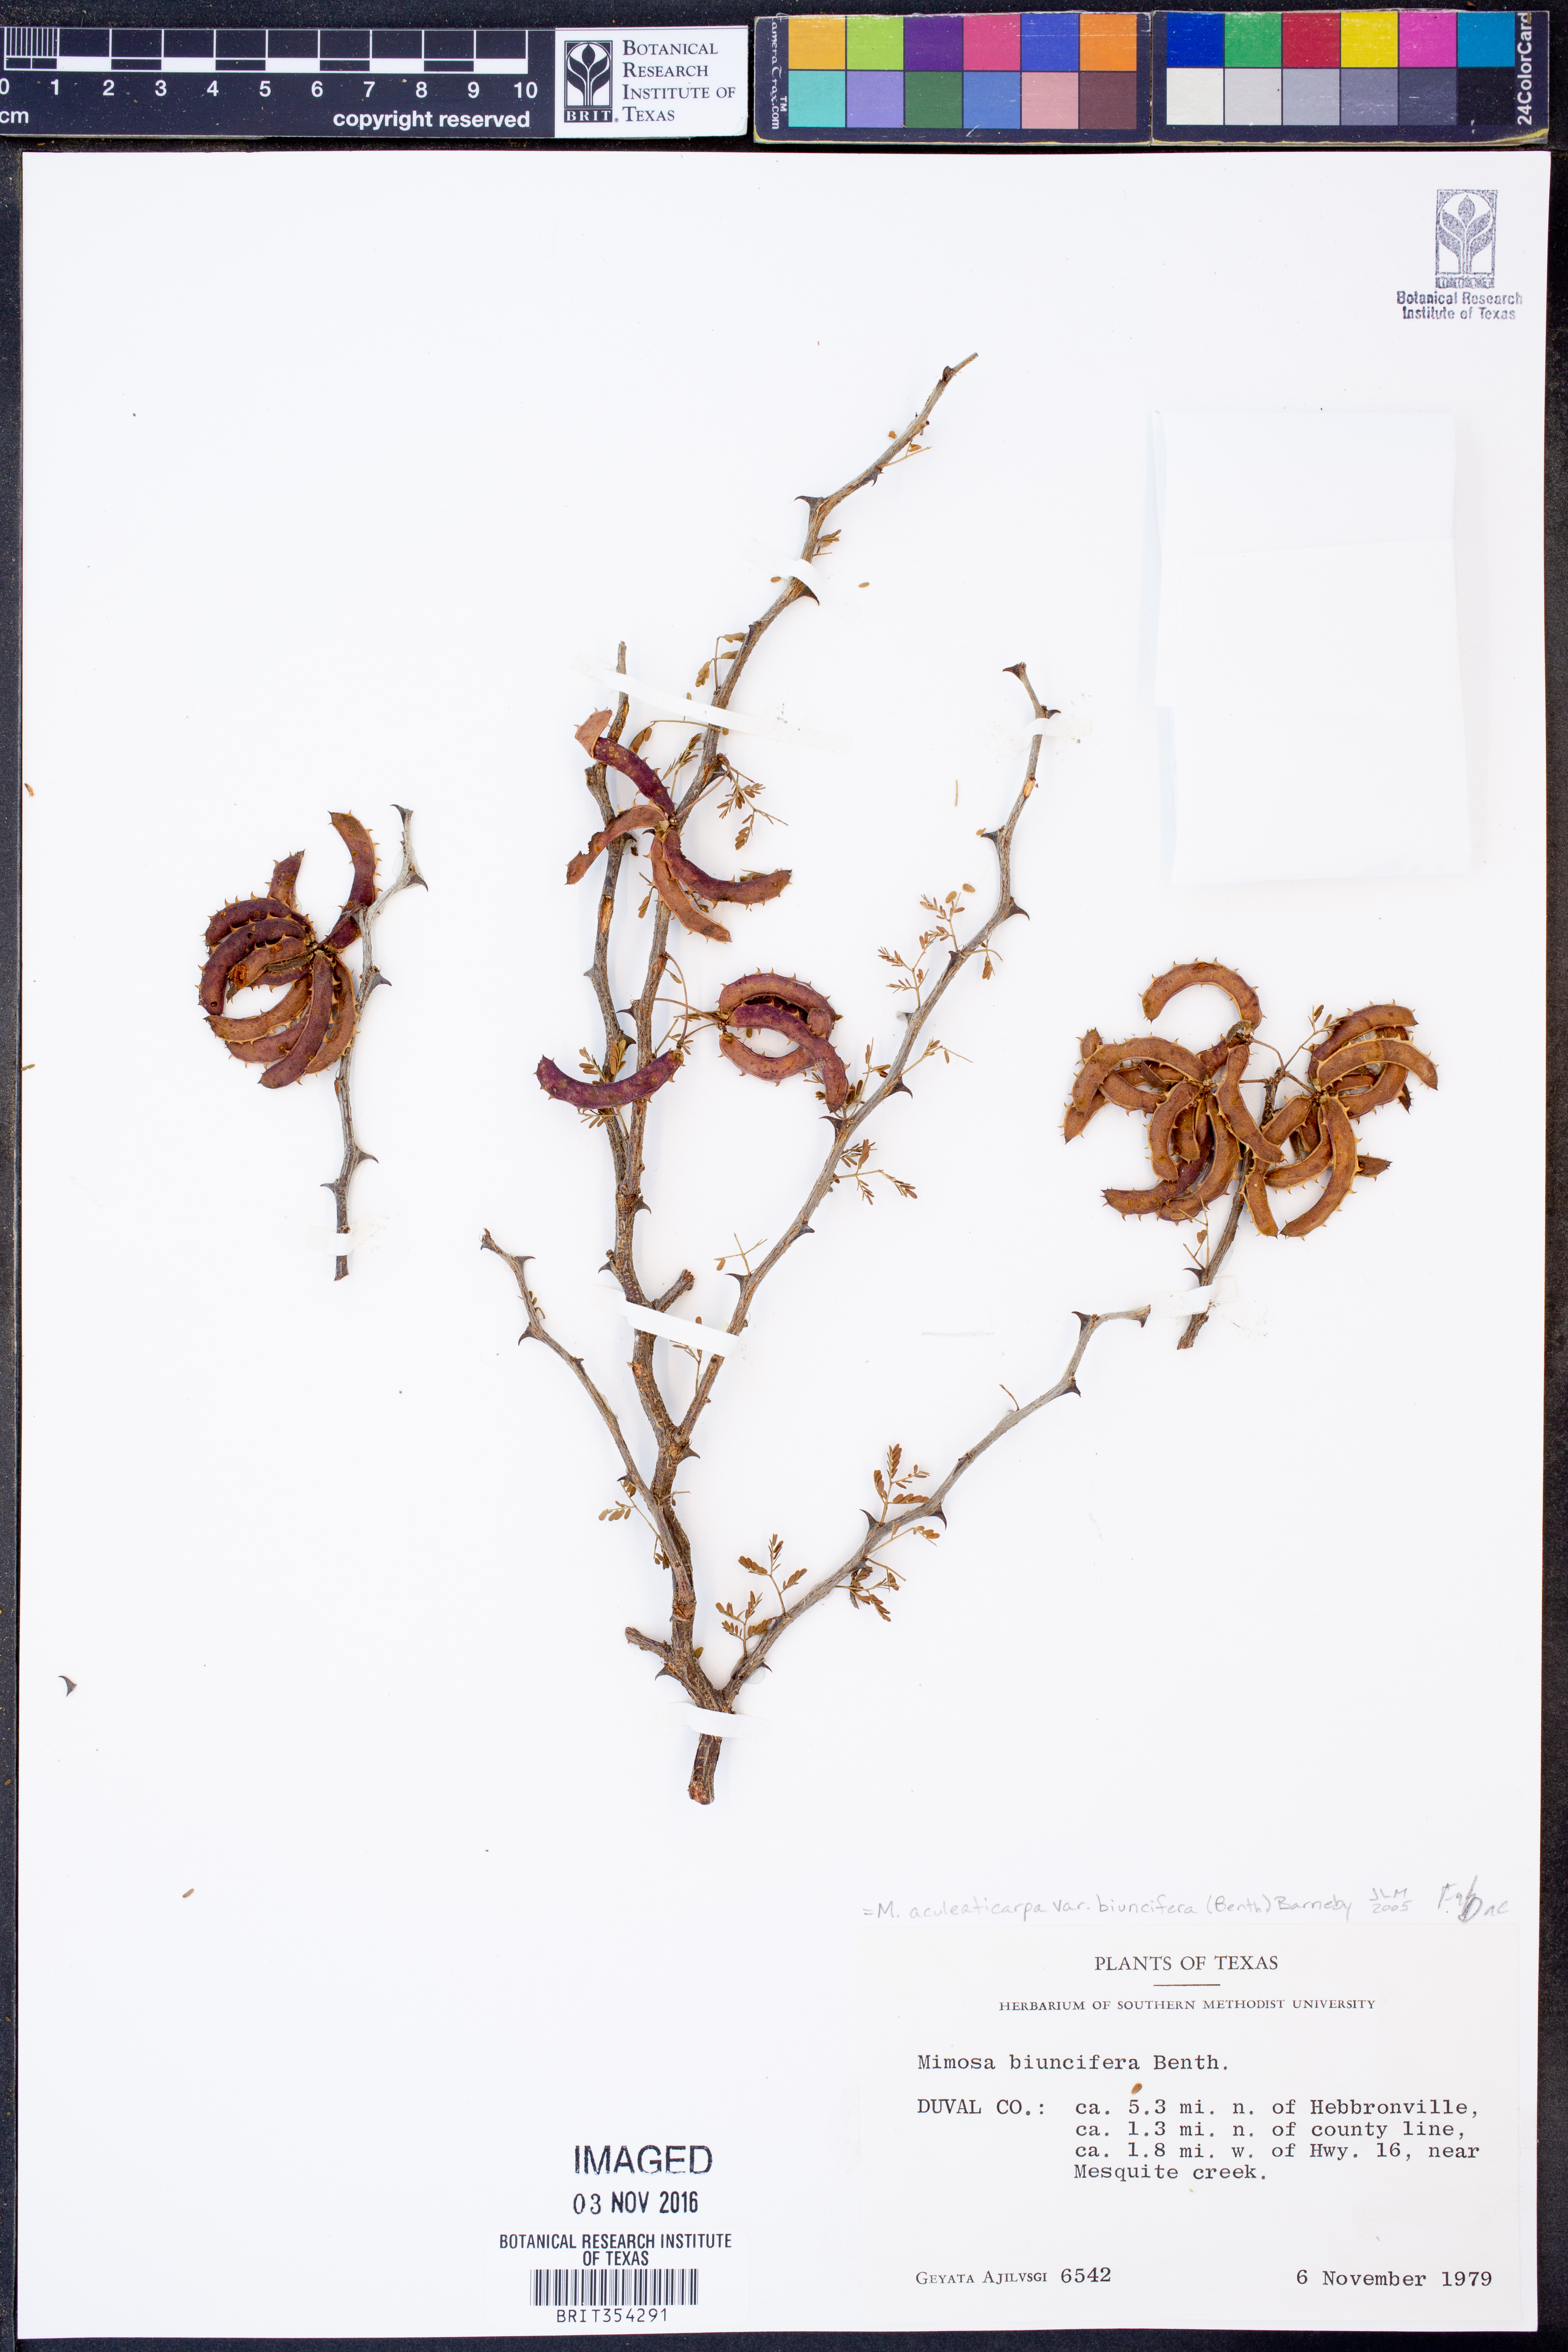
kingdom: Plantae
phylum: Tracheophyta
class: Magnoliopsida
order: Fabales
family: Fabaceae
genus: Mimosa
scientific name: Mimosa biuncifera
